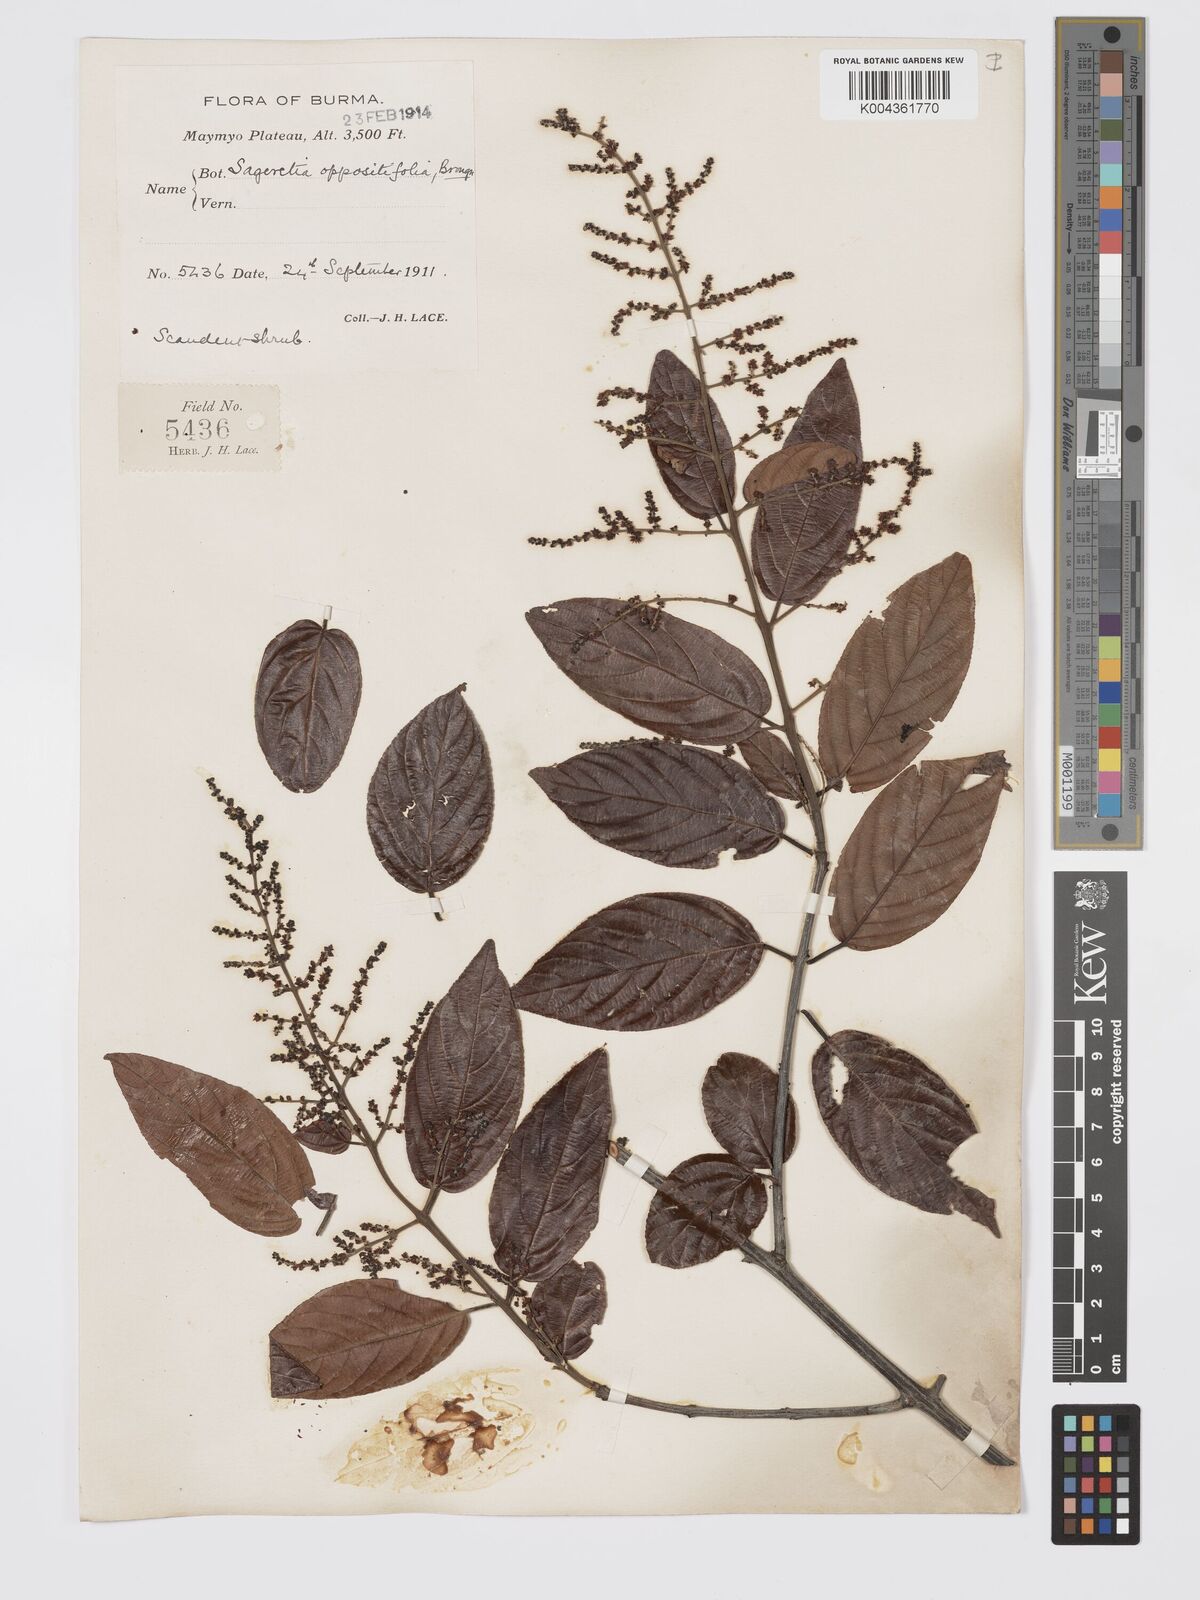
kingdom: Plantae
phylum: Tracheophyta
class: Magnoliopsida
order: Rosales
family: Rhamnaceae
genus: Sageretia
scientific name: Sageretia filiformis
